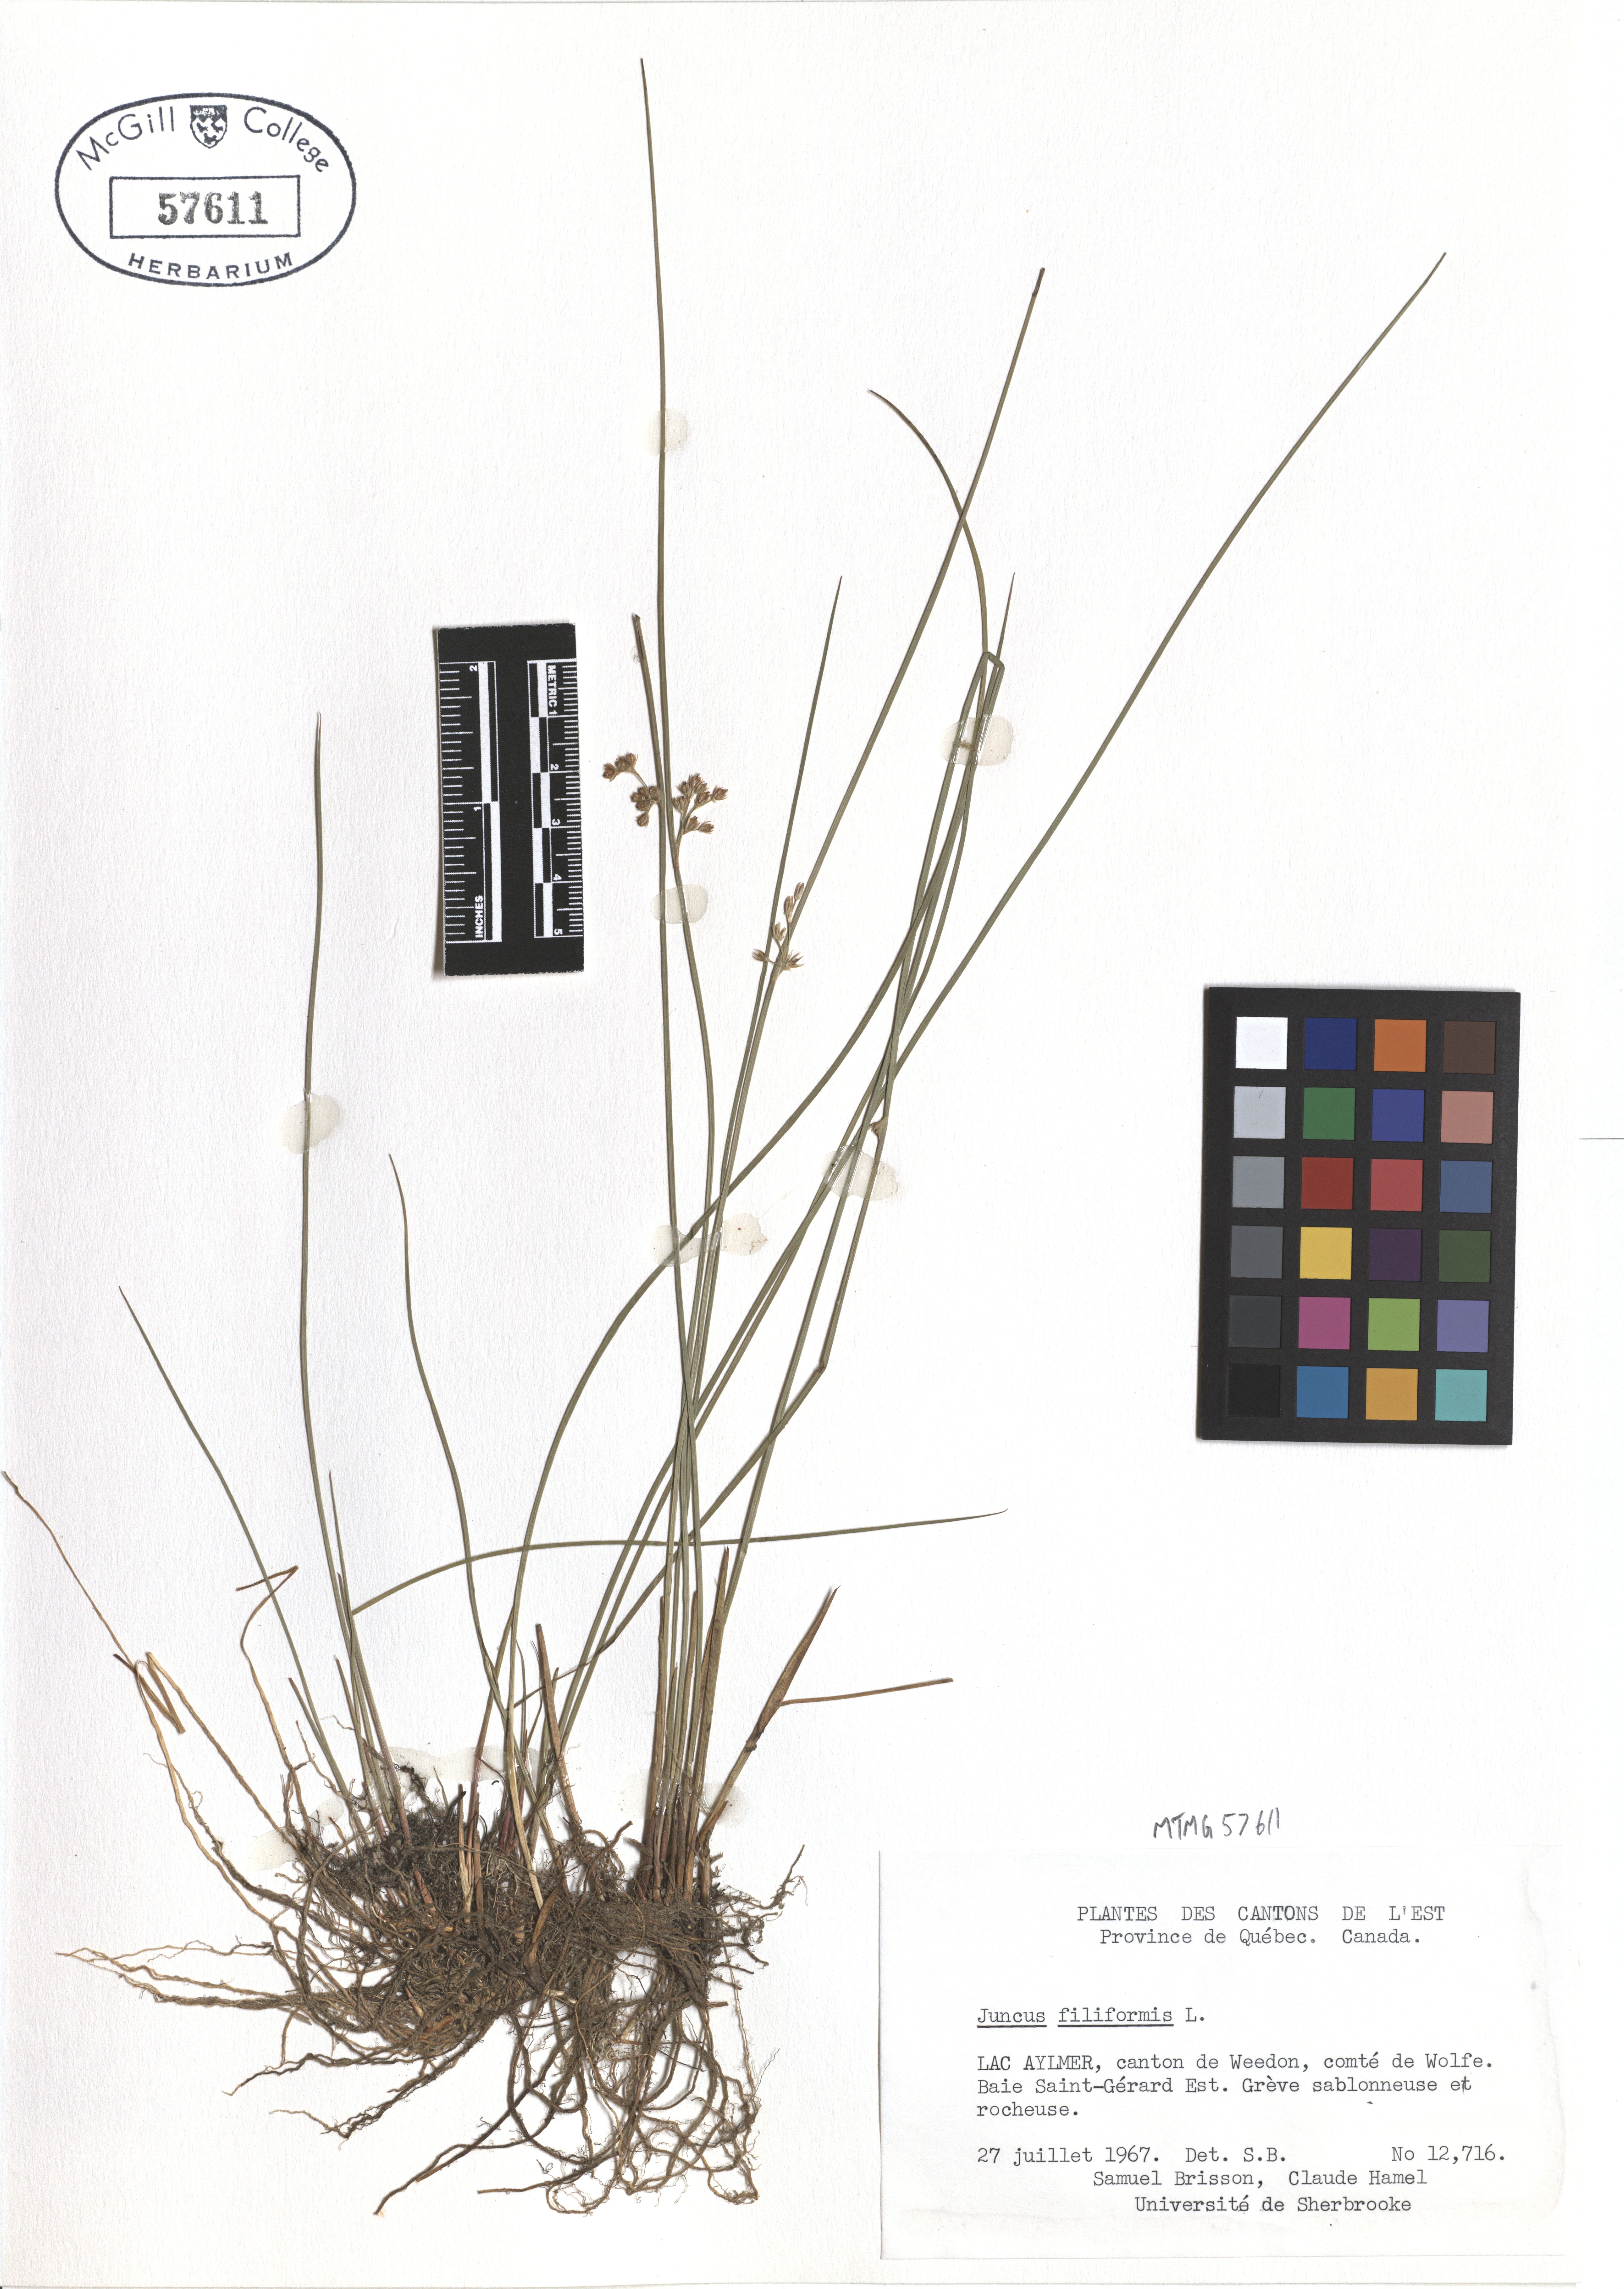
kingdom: Plantae
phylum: Tracheophyta
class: Liliopsida
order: Poales
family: Juncaceae
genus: Juncus
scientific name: Juncus filiformis
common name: Thread rush
